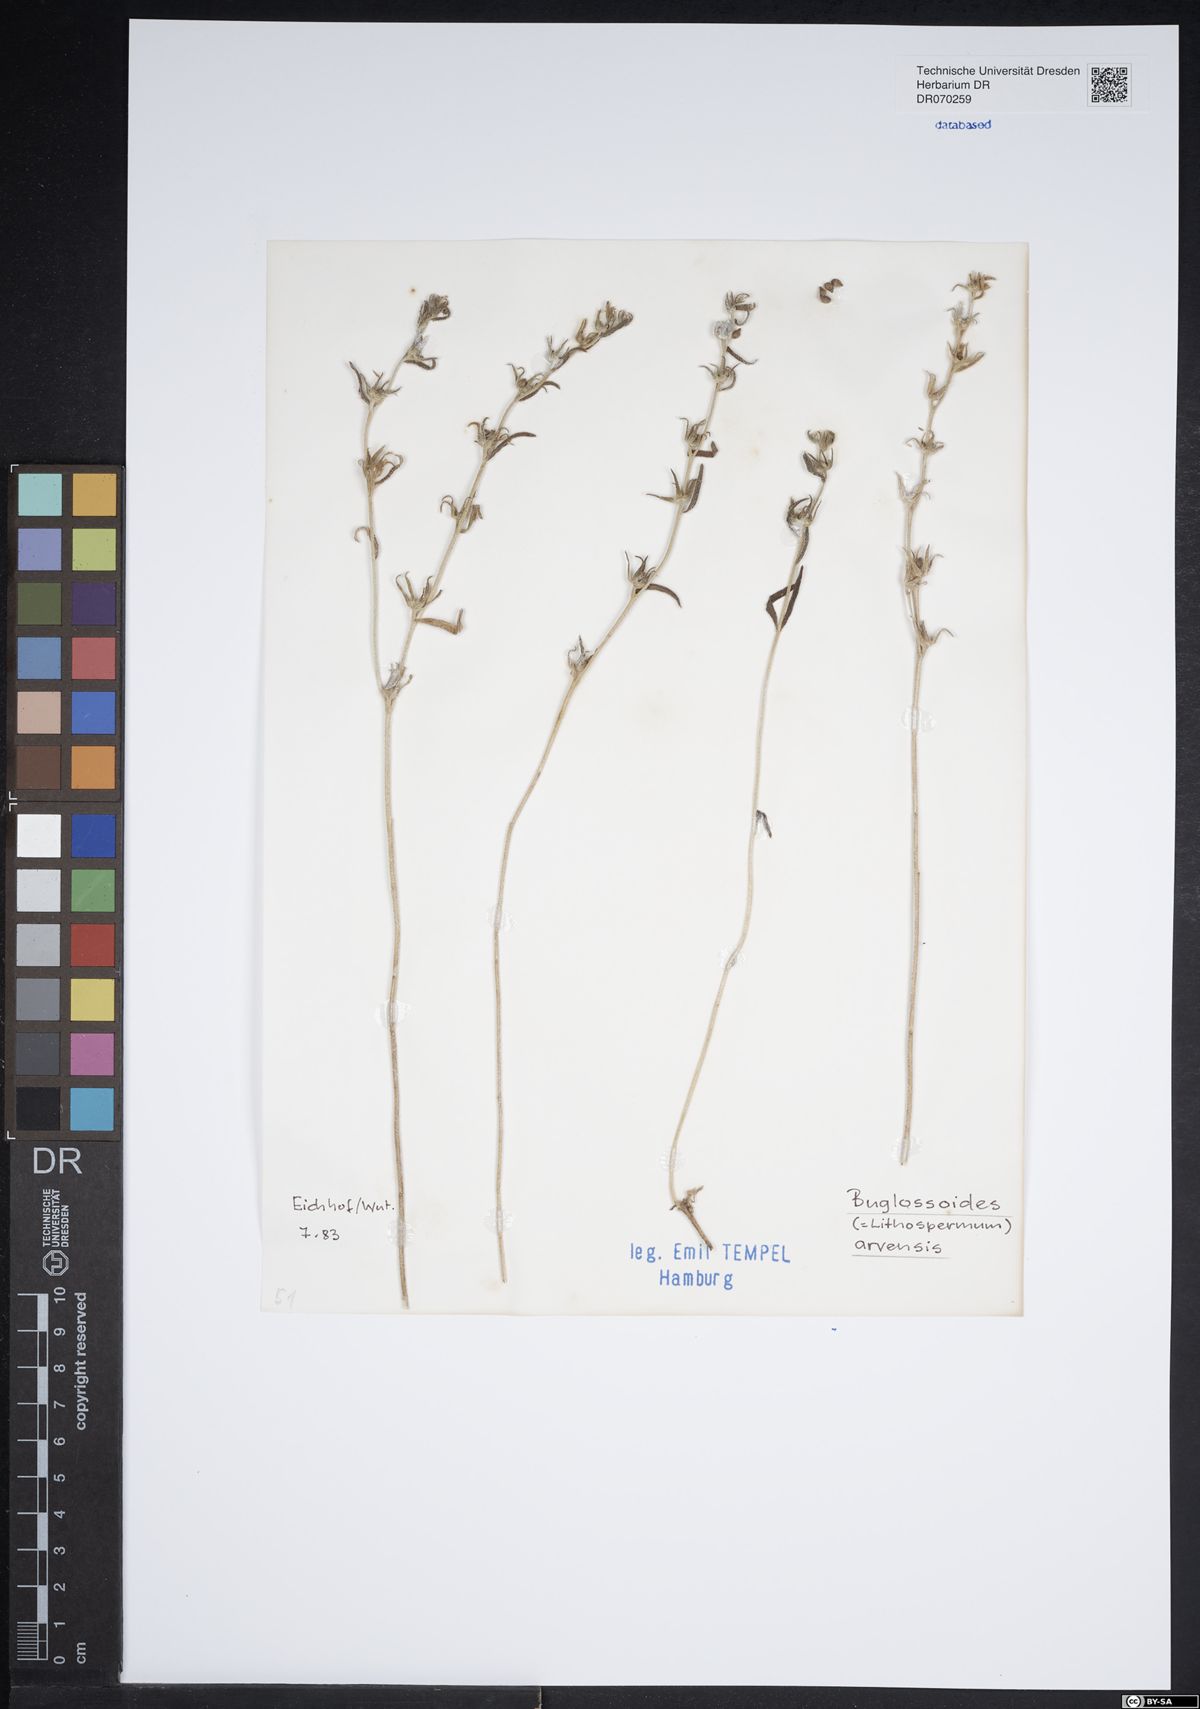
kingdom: Plantae
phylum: Tracheophyta
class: Magnoliopsida
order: Boraginales
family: Boraginaceae
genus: Buglossoides
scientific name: Buglossoides arvensis
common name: Corn gromwell
